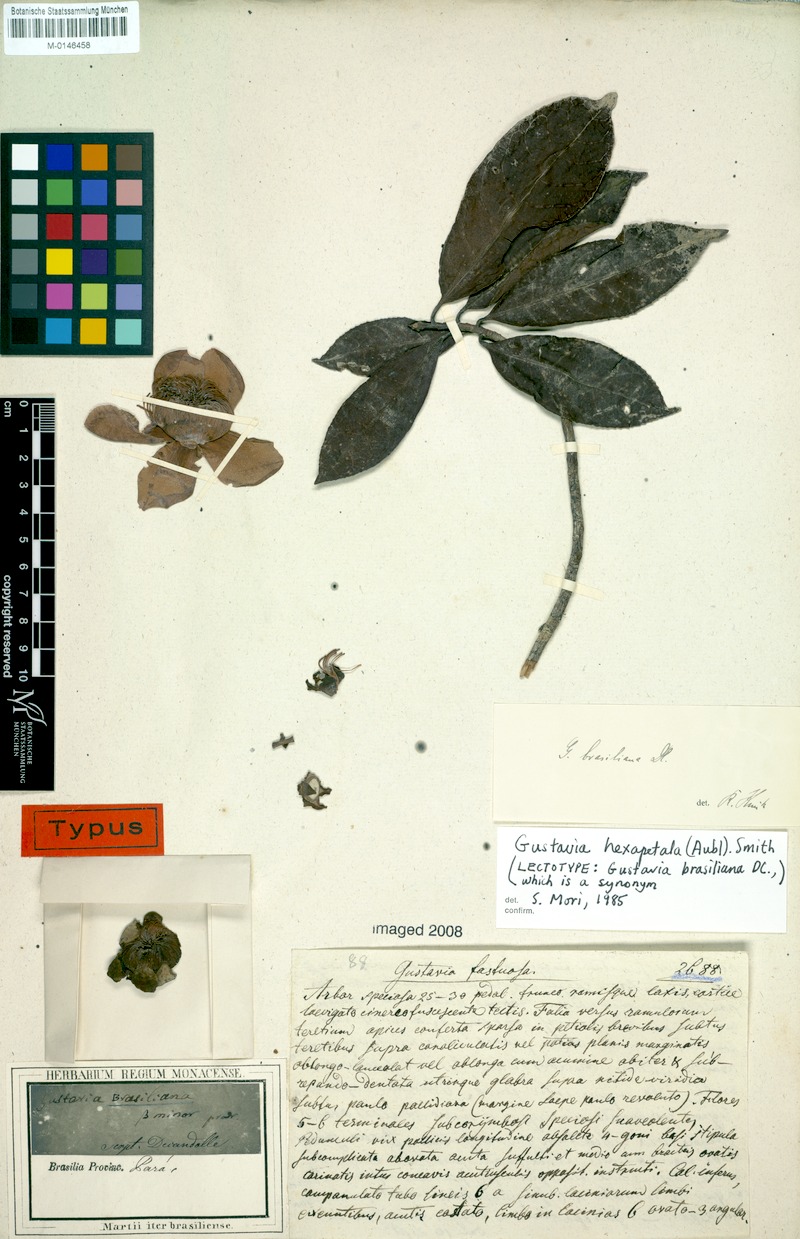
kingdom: Plantae
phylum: Tracheophyta
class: Magnoliopsida
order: Ericales
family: Lecythidaceae
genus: Gustavia
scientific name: Gustavia hexapetala
